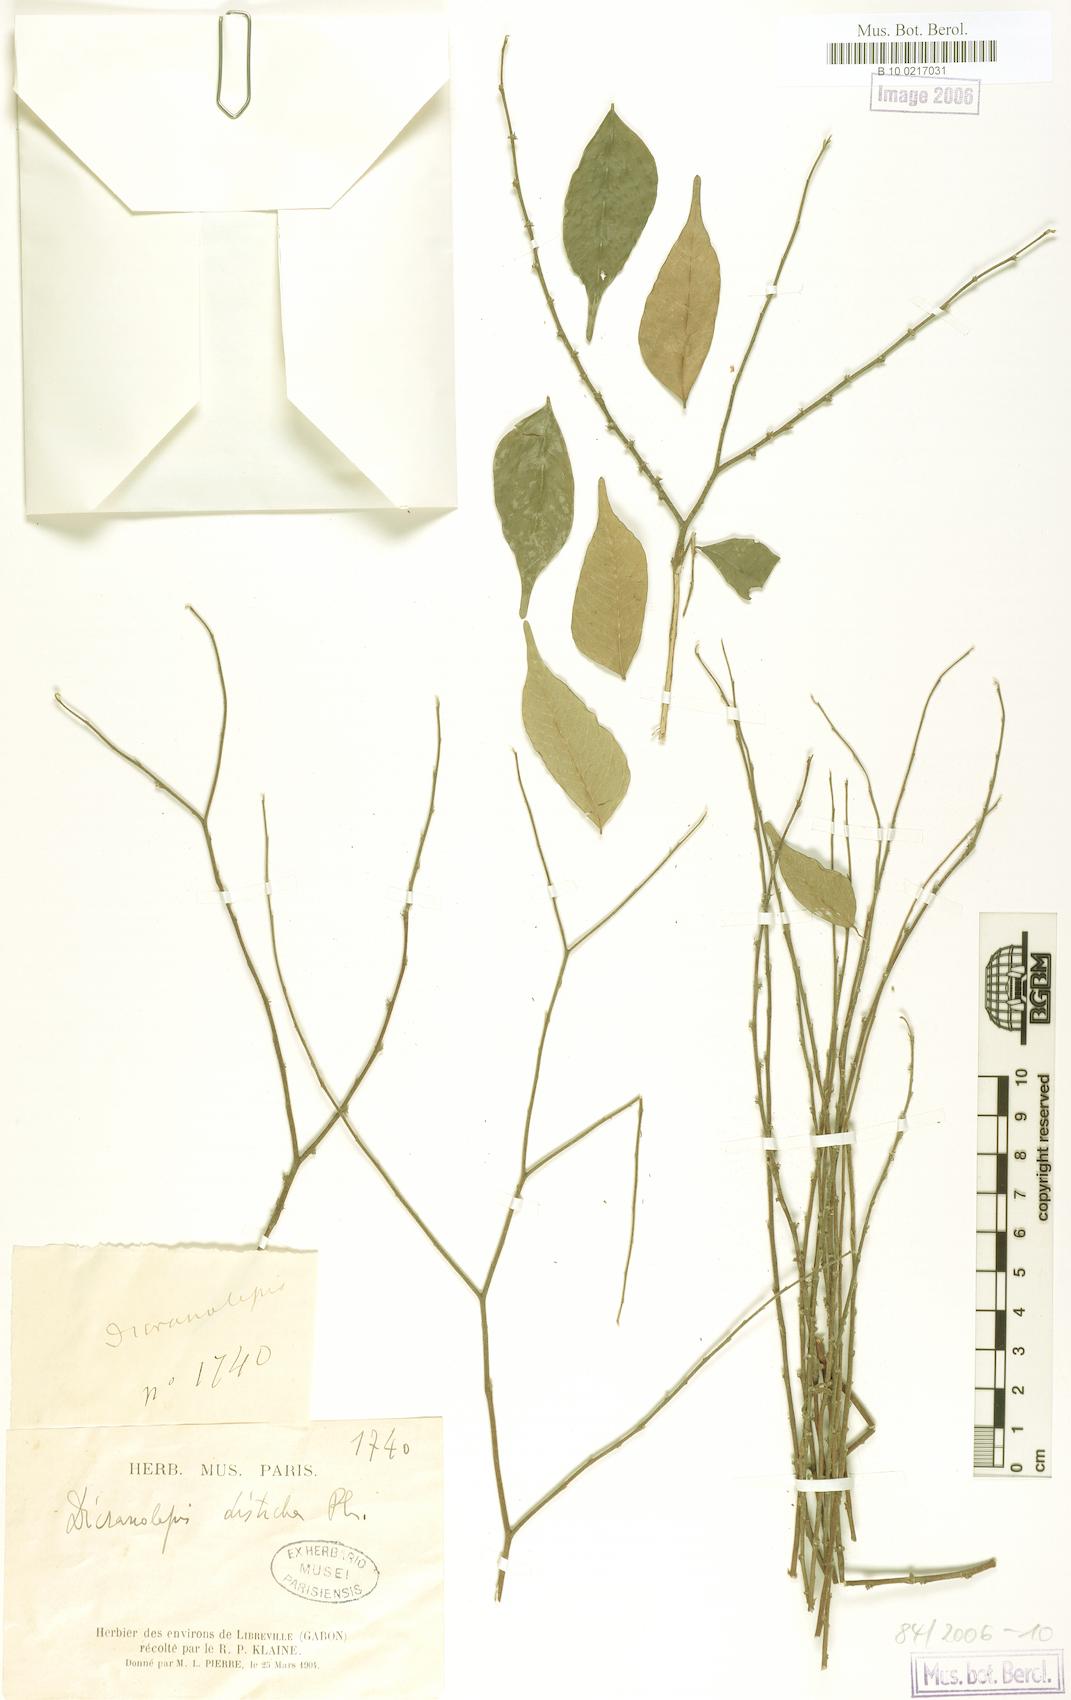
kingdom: Plantae
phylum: Tracheophyta
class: Magnoliopsida
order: Malvales
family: Thymelaeaceae
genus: Dicranolepis
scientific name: Dicranolepis buchholzii
